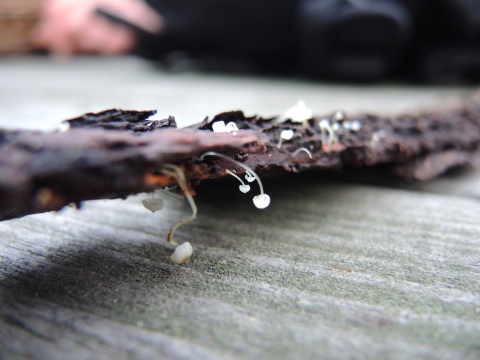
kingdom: Fungi
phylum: Basidiomycota
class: Agaricomycetes
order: Agaricales
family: Porotheleaceae
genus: Phloeomana
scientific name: Phloeomana speirea
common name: kvist-huesvamp
